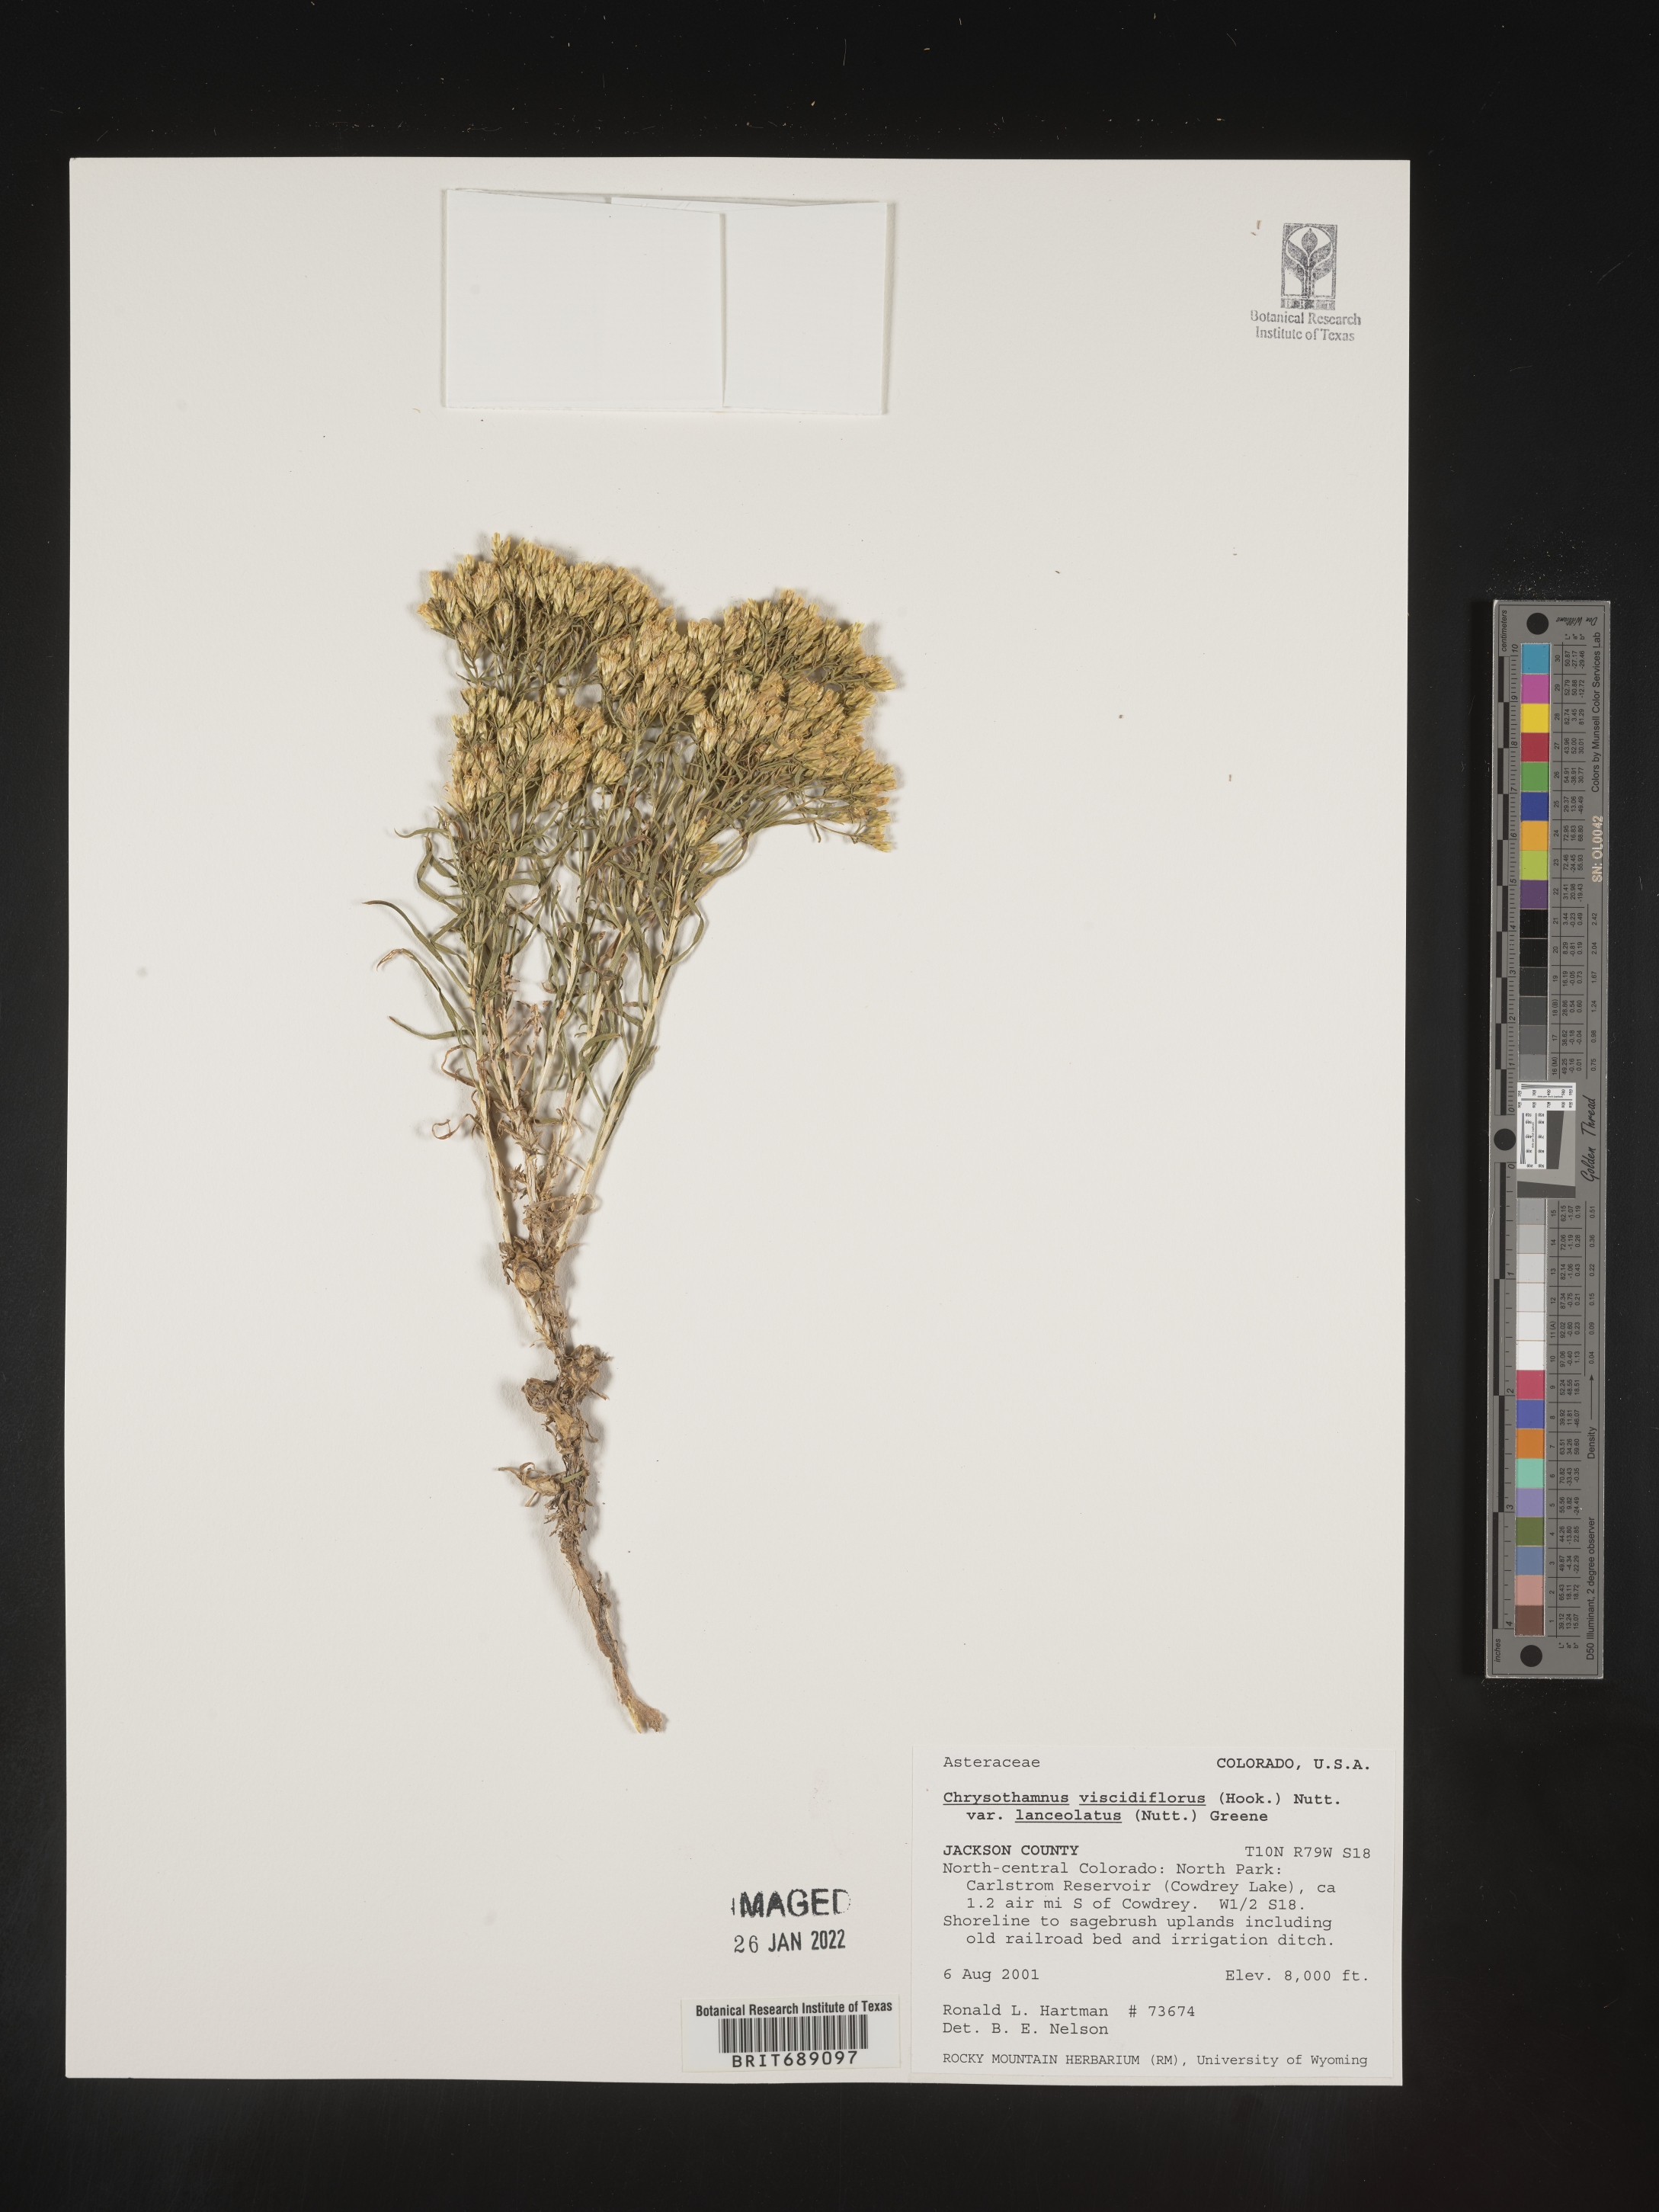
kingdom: Plantae
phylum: Tracheophyta
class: Magnoliopsida
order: Asterales
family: Asteraceae
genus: Chrysothamnus
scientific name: Chrysothamnus viscidiflorus
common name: Yellow rabbitbrush
